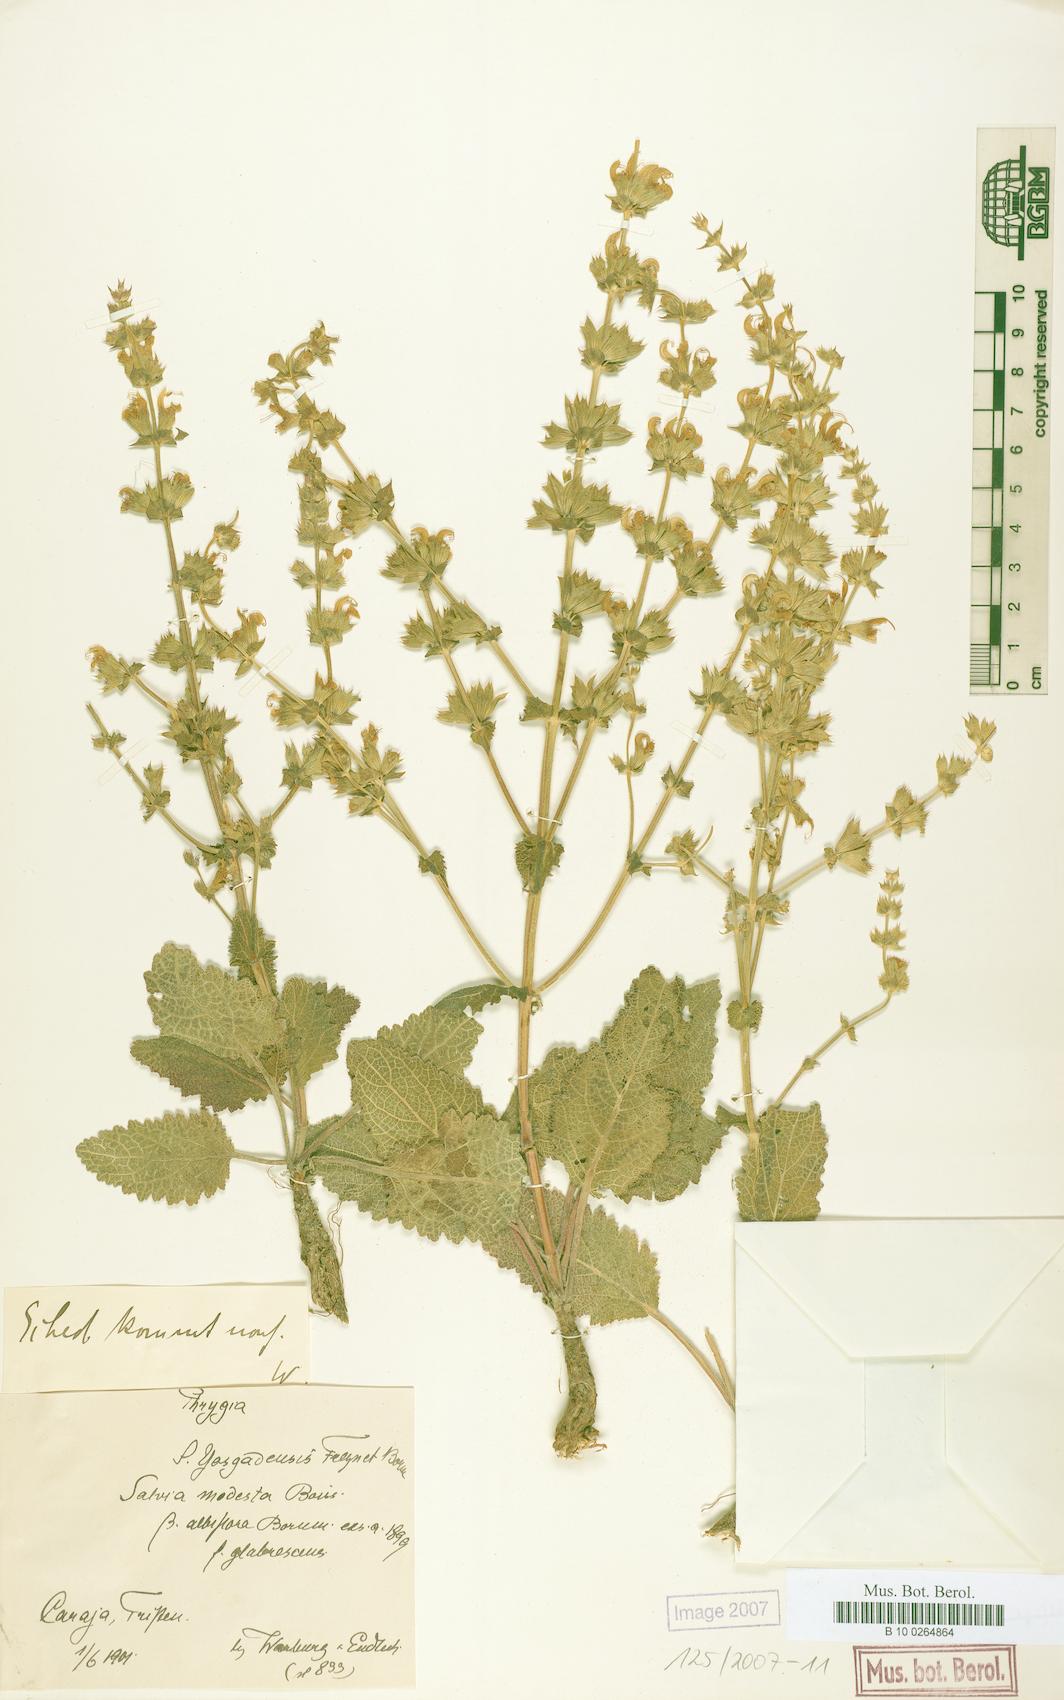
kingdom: Plantae
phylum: Tracheophyta
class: Magnoliopsida
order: Lamiales
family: Lamiaceae
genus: Salvia
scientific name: Salvia modesta
